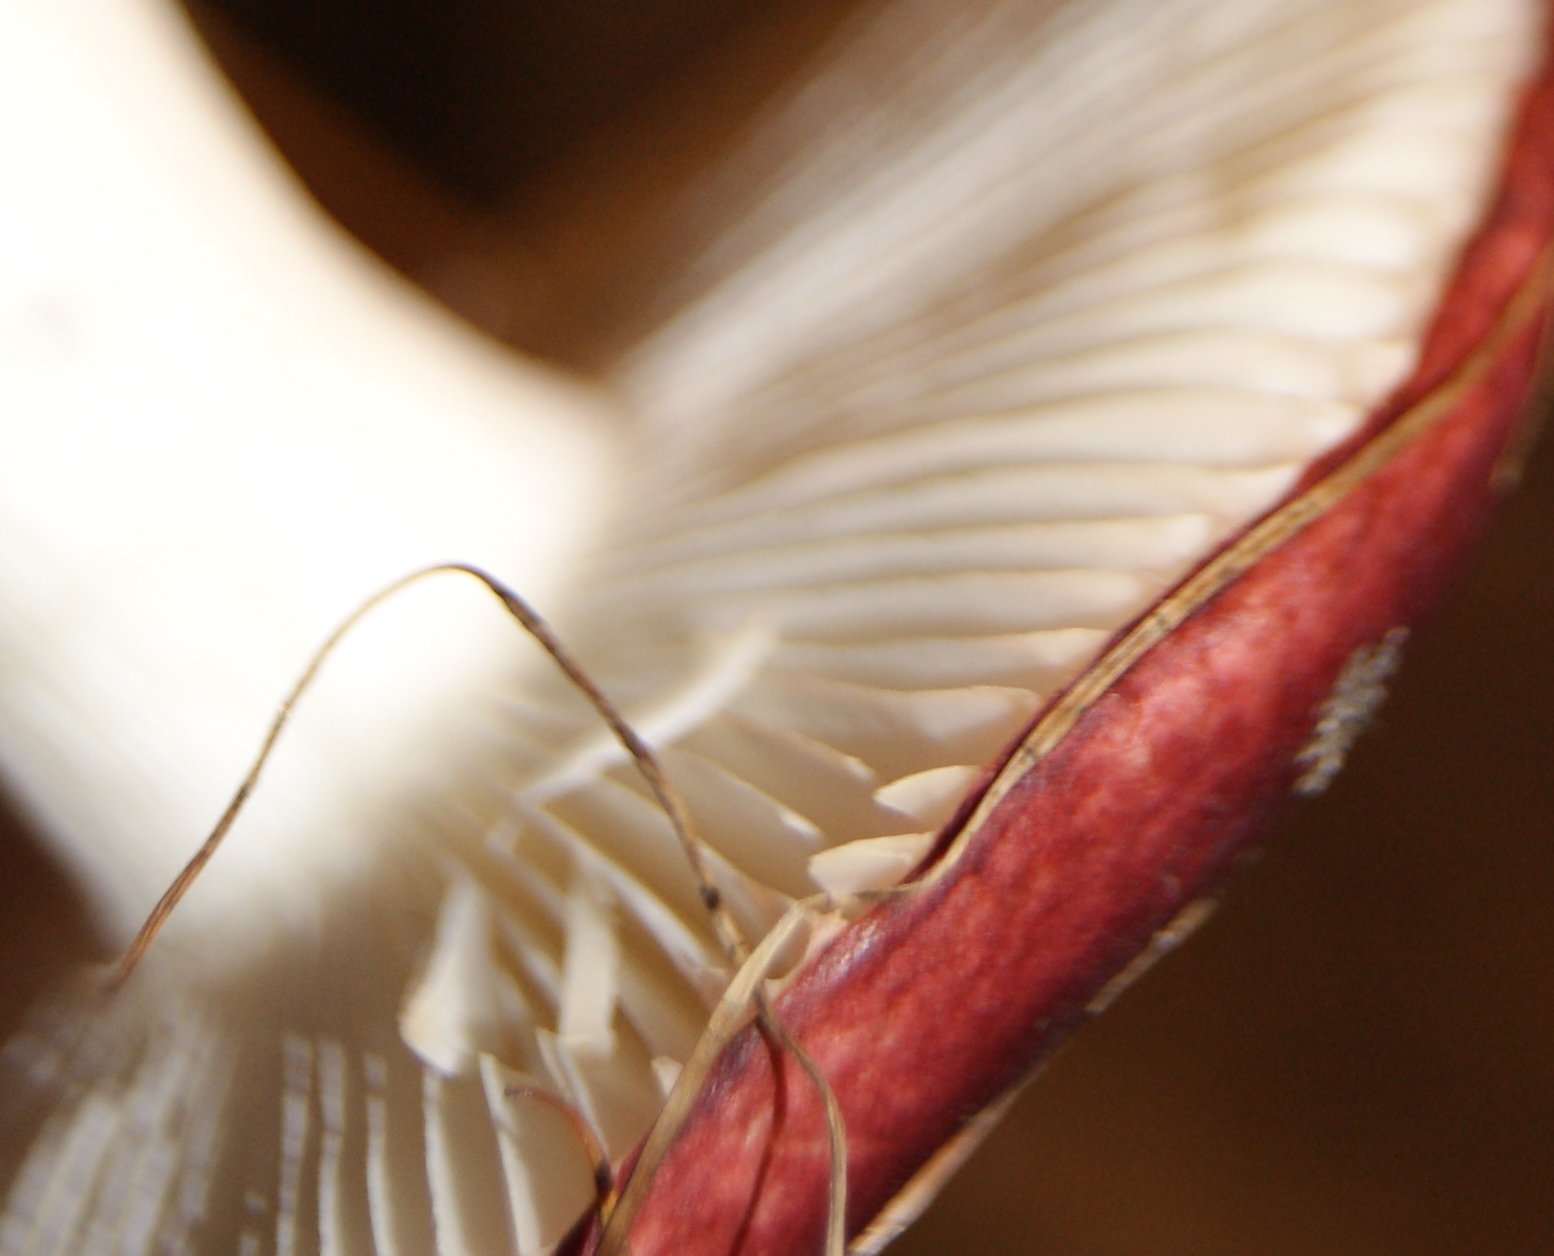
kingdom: Fungi
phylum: Basidiomycota
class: Agaricomycetes
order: Russulales
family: Russulaceae
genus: Russula
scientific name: Russula fragilis
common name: savbladet skørhat
